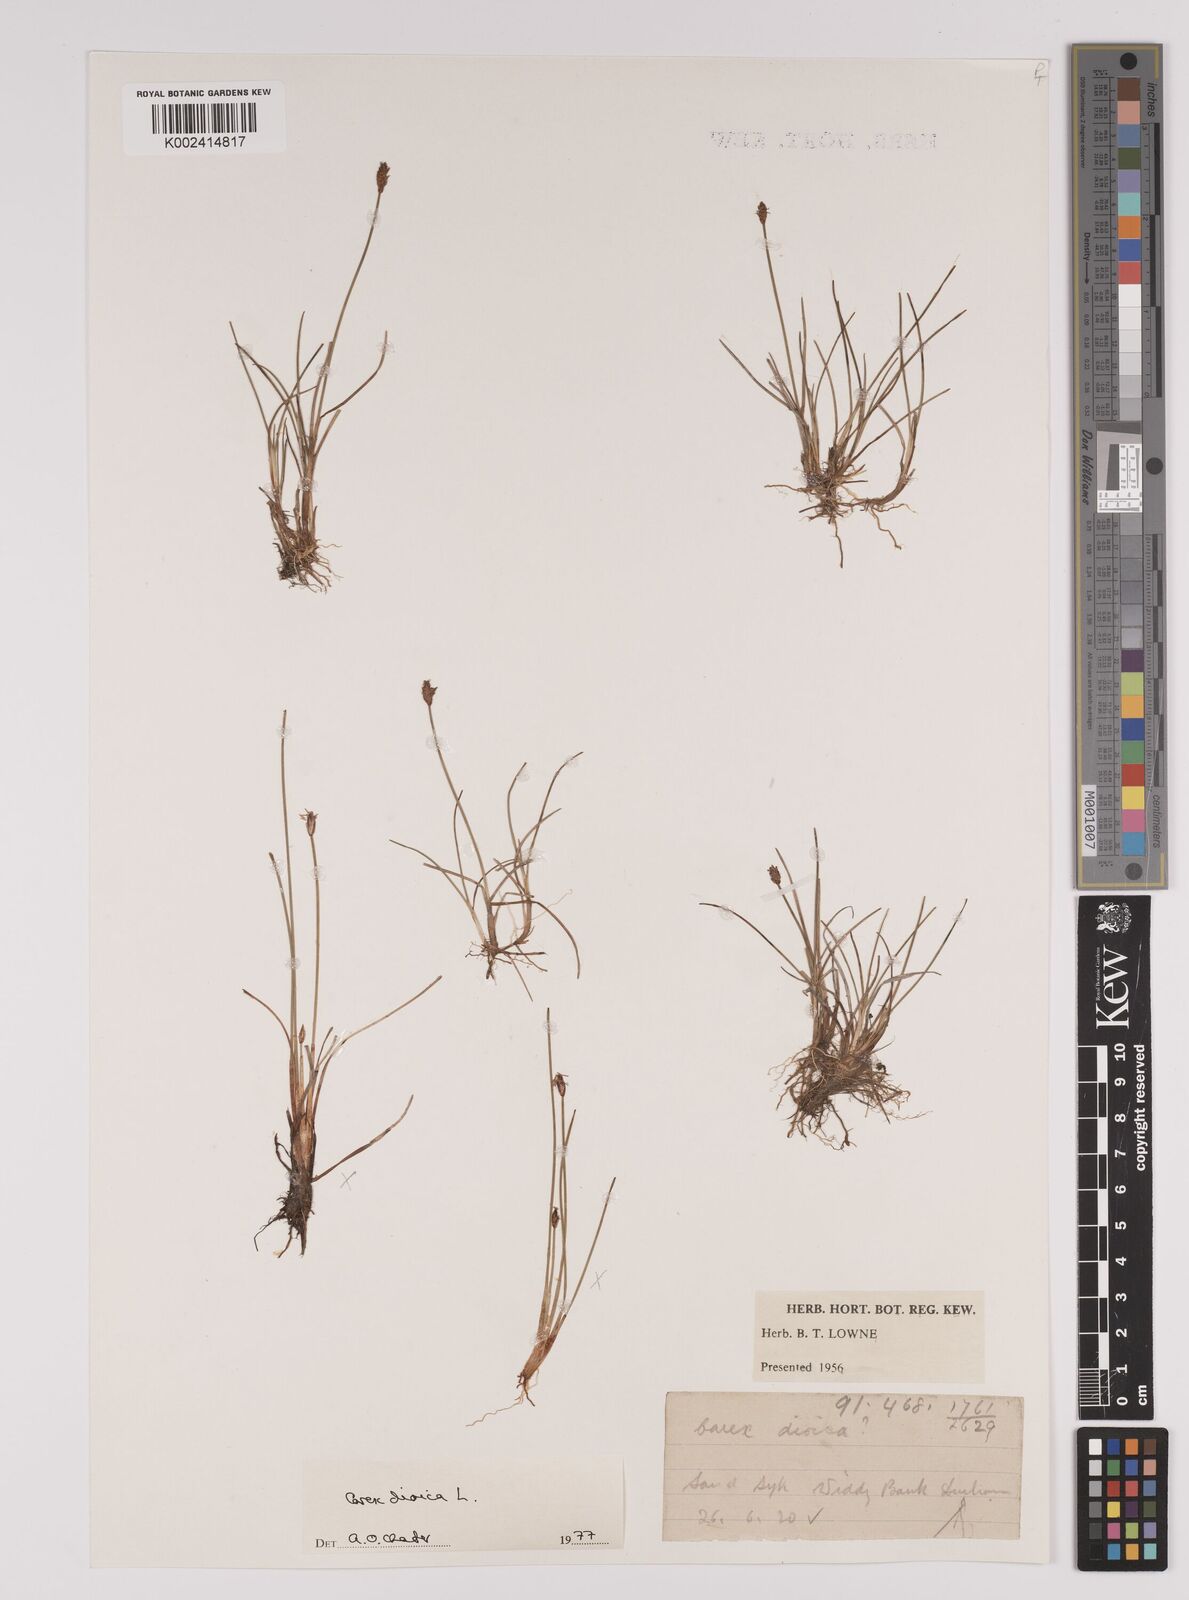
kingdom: Plantae
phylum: Tracheophyta
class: Liliopsida
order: Poales
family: Cyperaceae
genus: Carex
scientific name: Carex dioica
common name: Dioecious sedge
